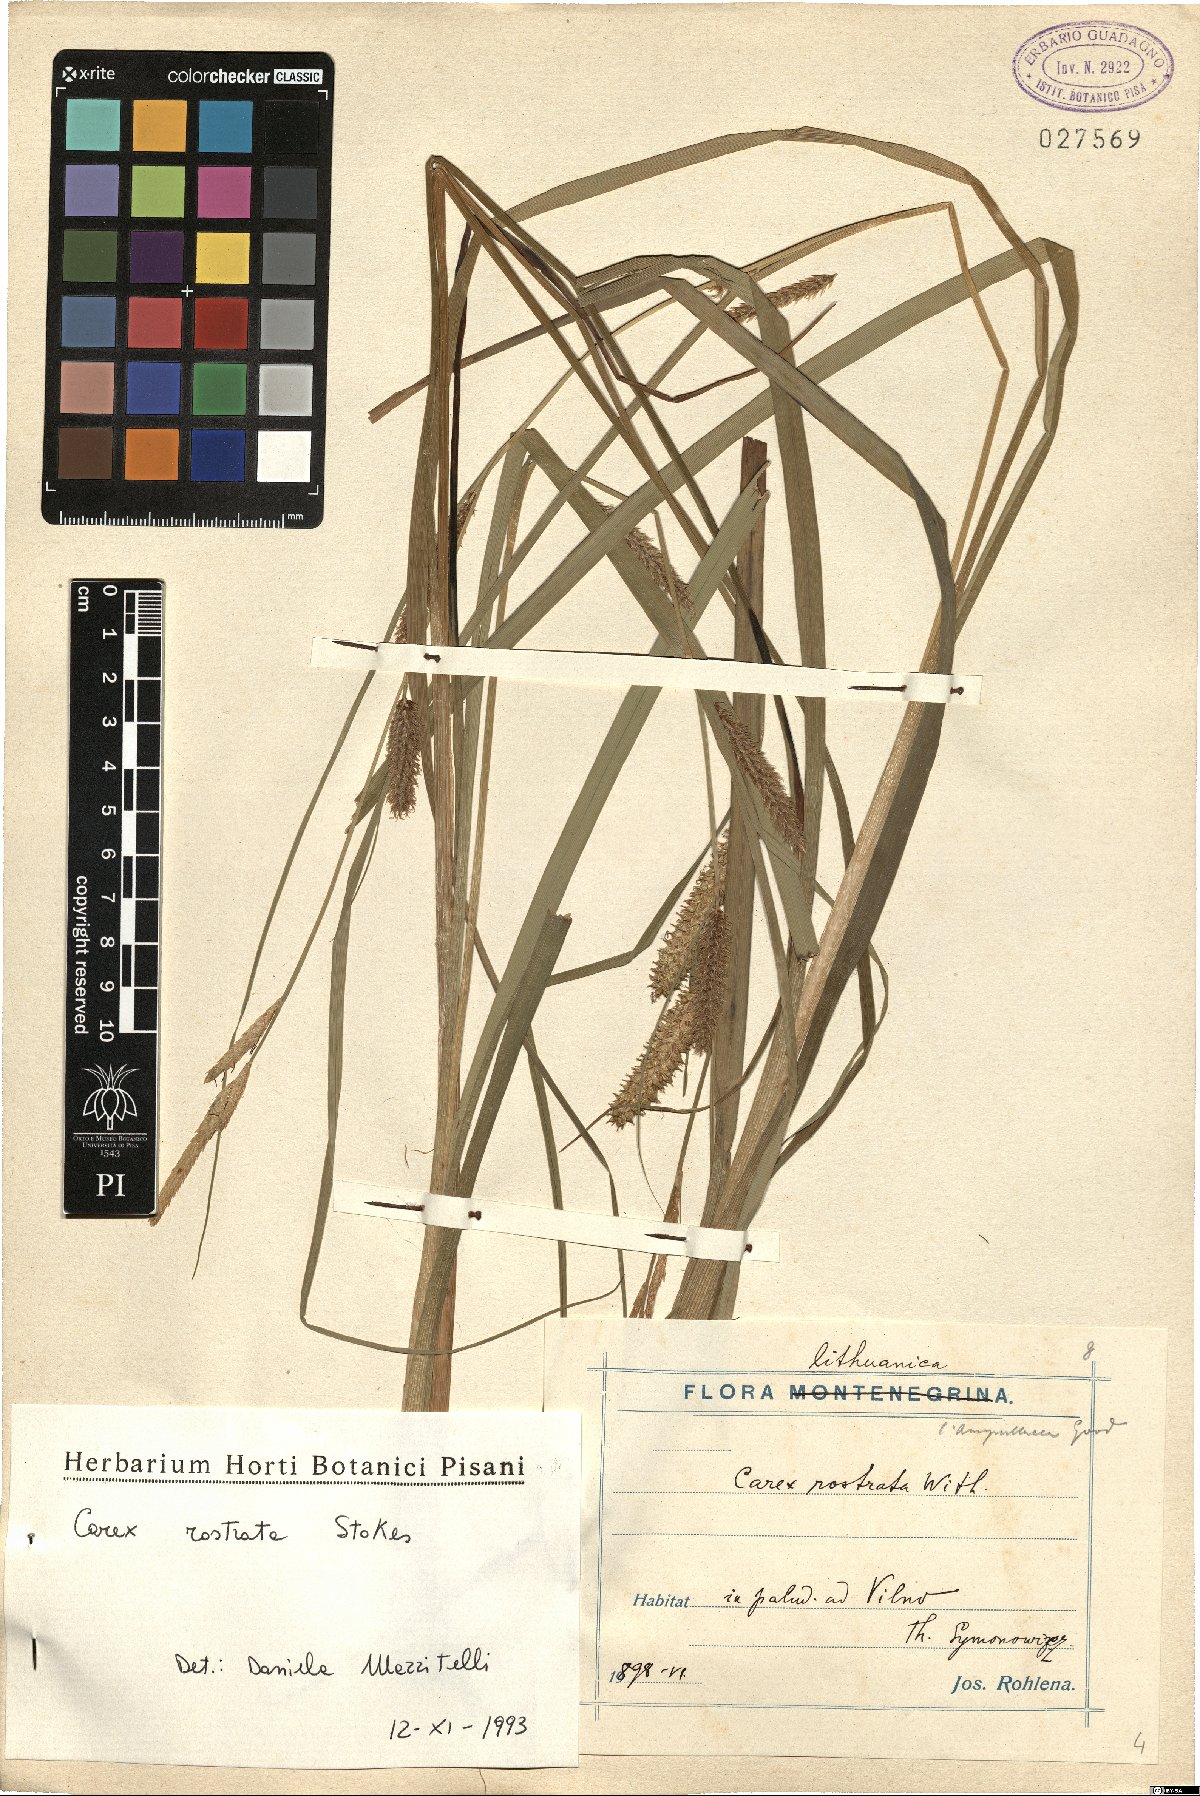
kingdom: Plantae
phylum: Tracheophyta
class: Liliopsida
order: Poales
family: Cyperaceae
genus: Carex
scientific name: Carex rostrata
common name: Bottle sedge
